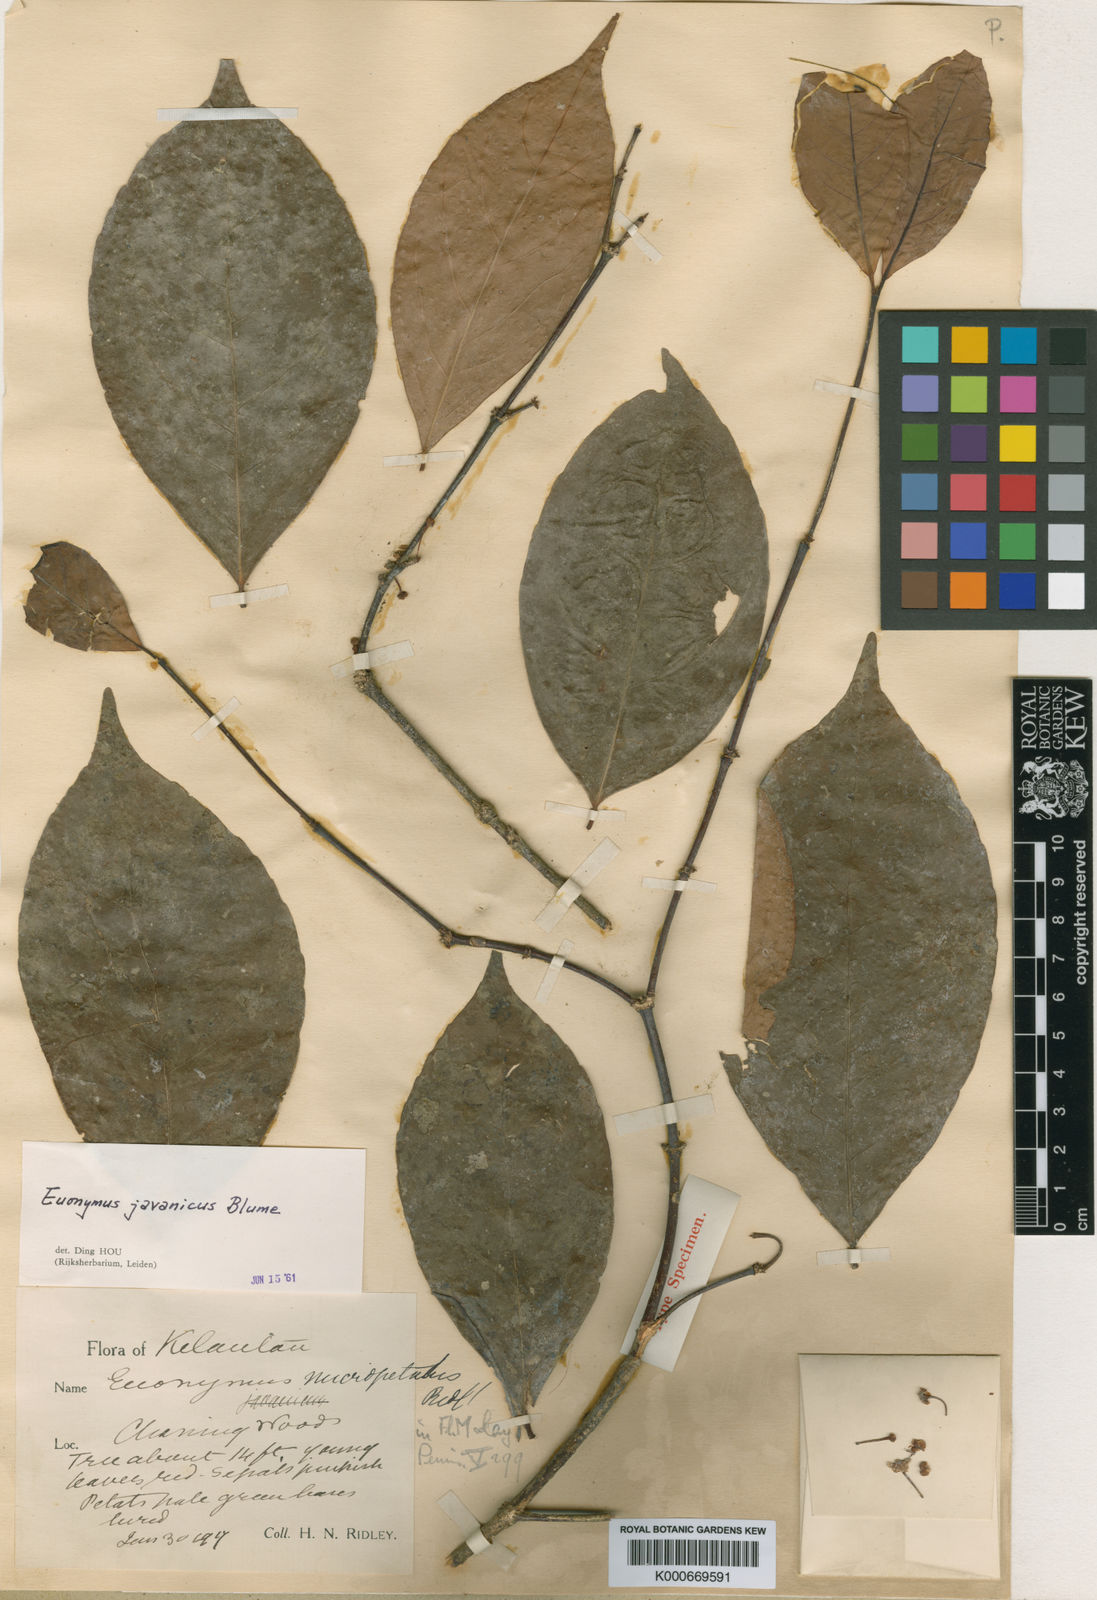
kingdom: Plantae
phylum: Tracheophyta
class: Magnoliopsida
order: Celastrales
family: Celastraceae
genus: Euonymus
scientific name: Euonymus indicus
